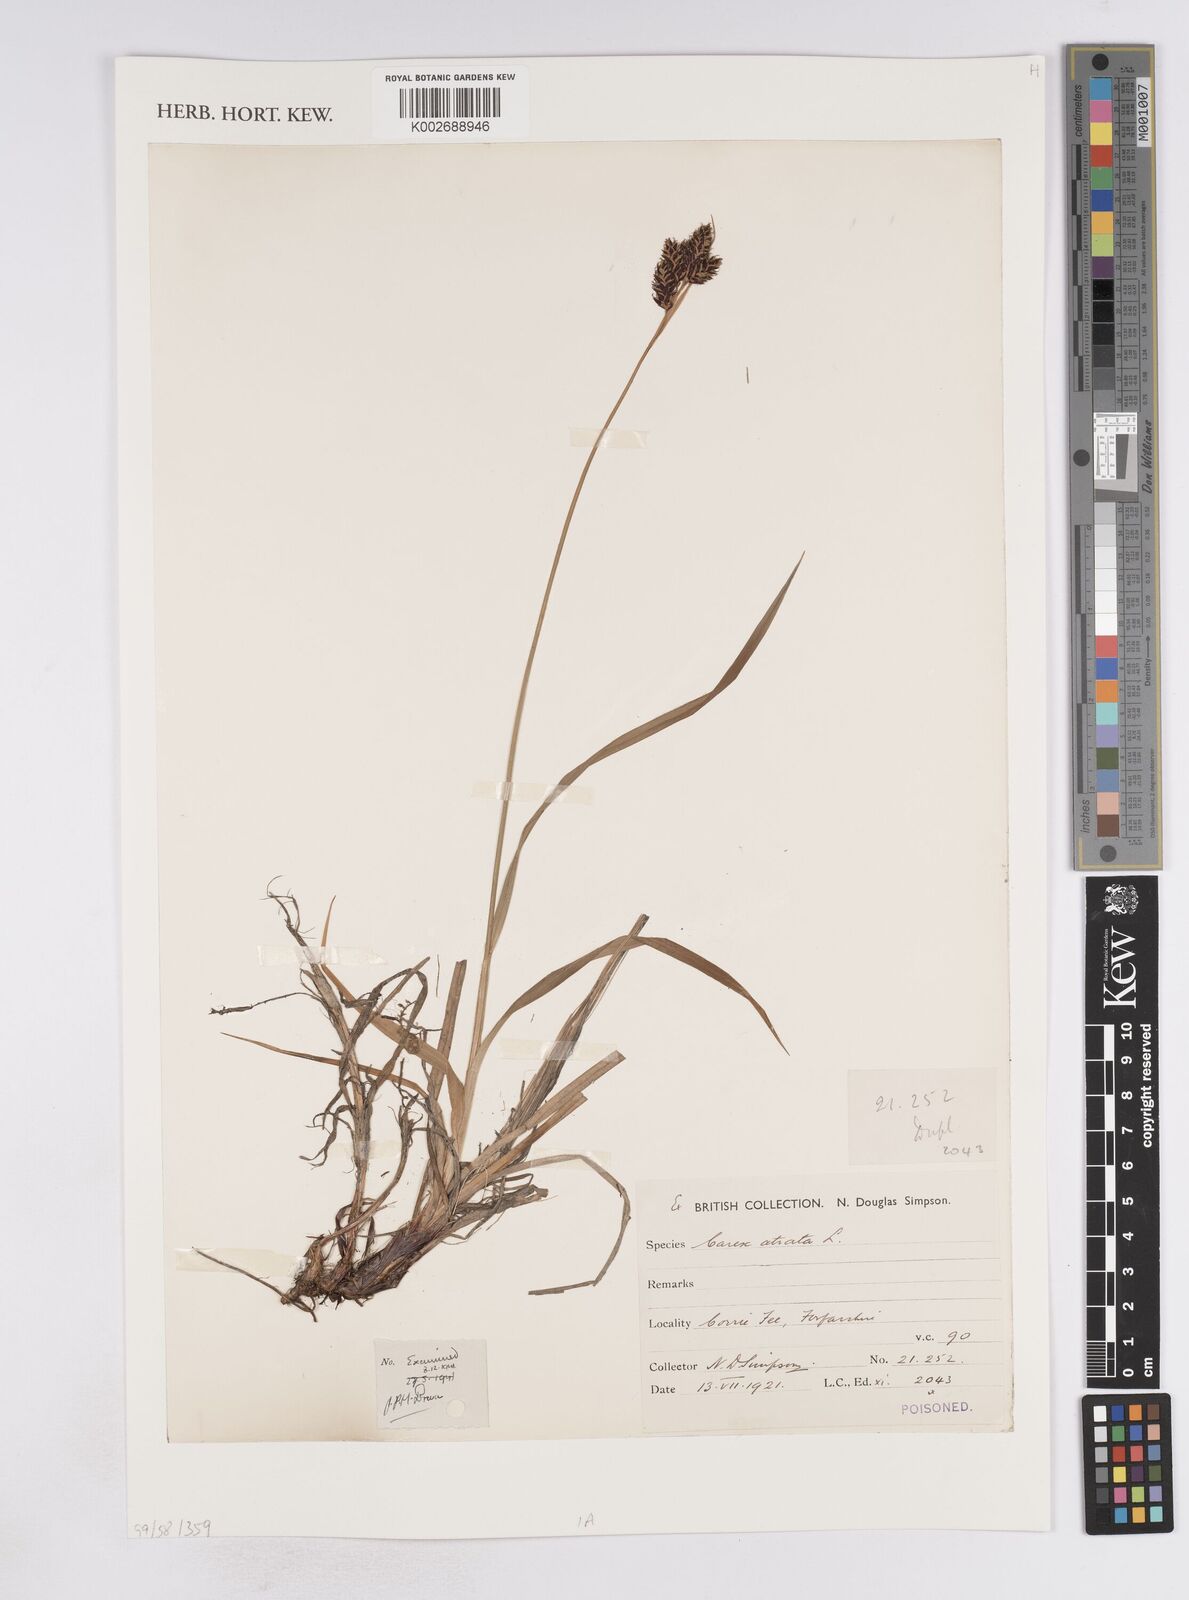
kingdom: Plantae
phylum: Tracheophyta
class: Liliopsida
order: Poales
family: Cyperaceae
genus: Carex
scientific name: Carex atrata
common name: Black alpine sedge
